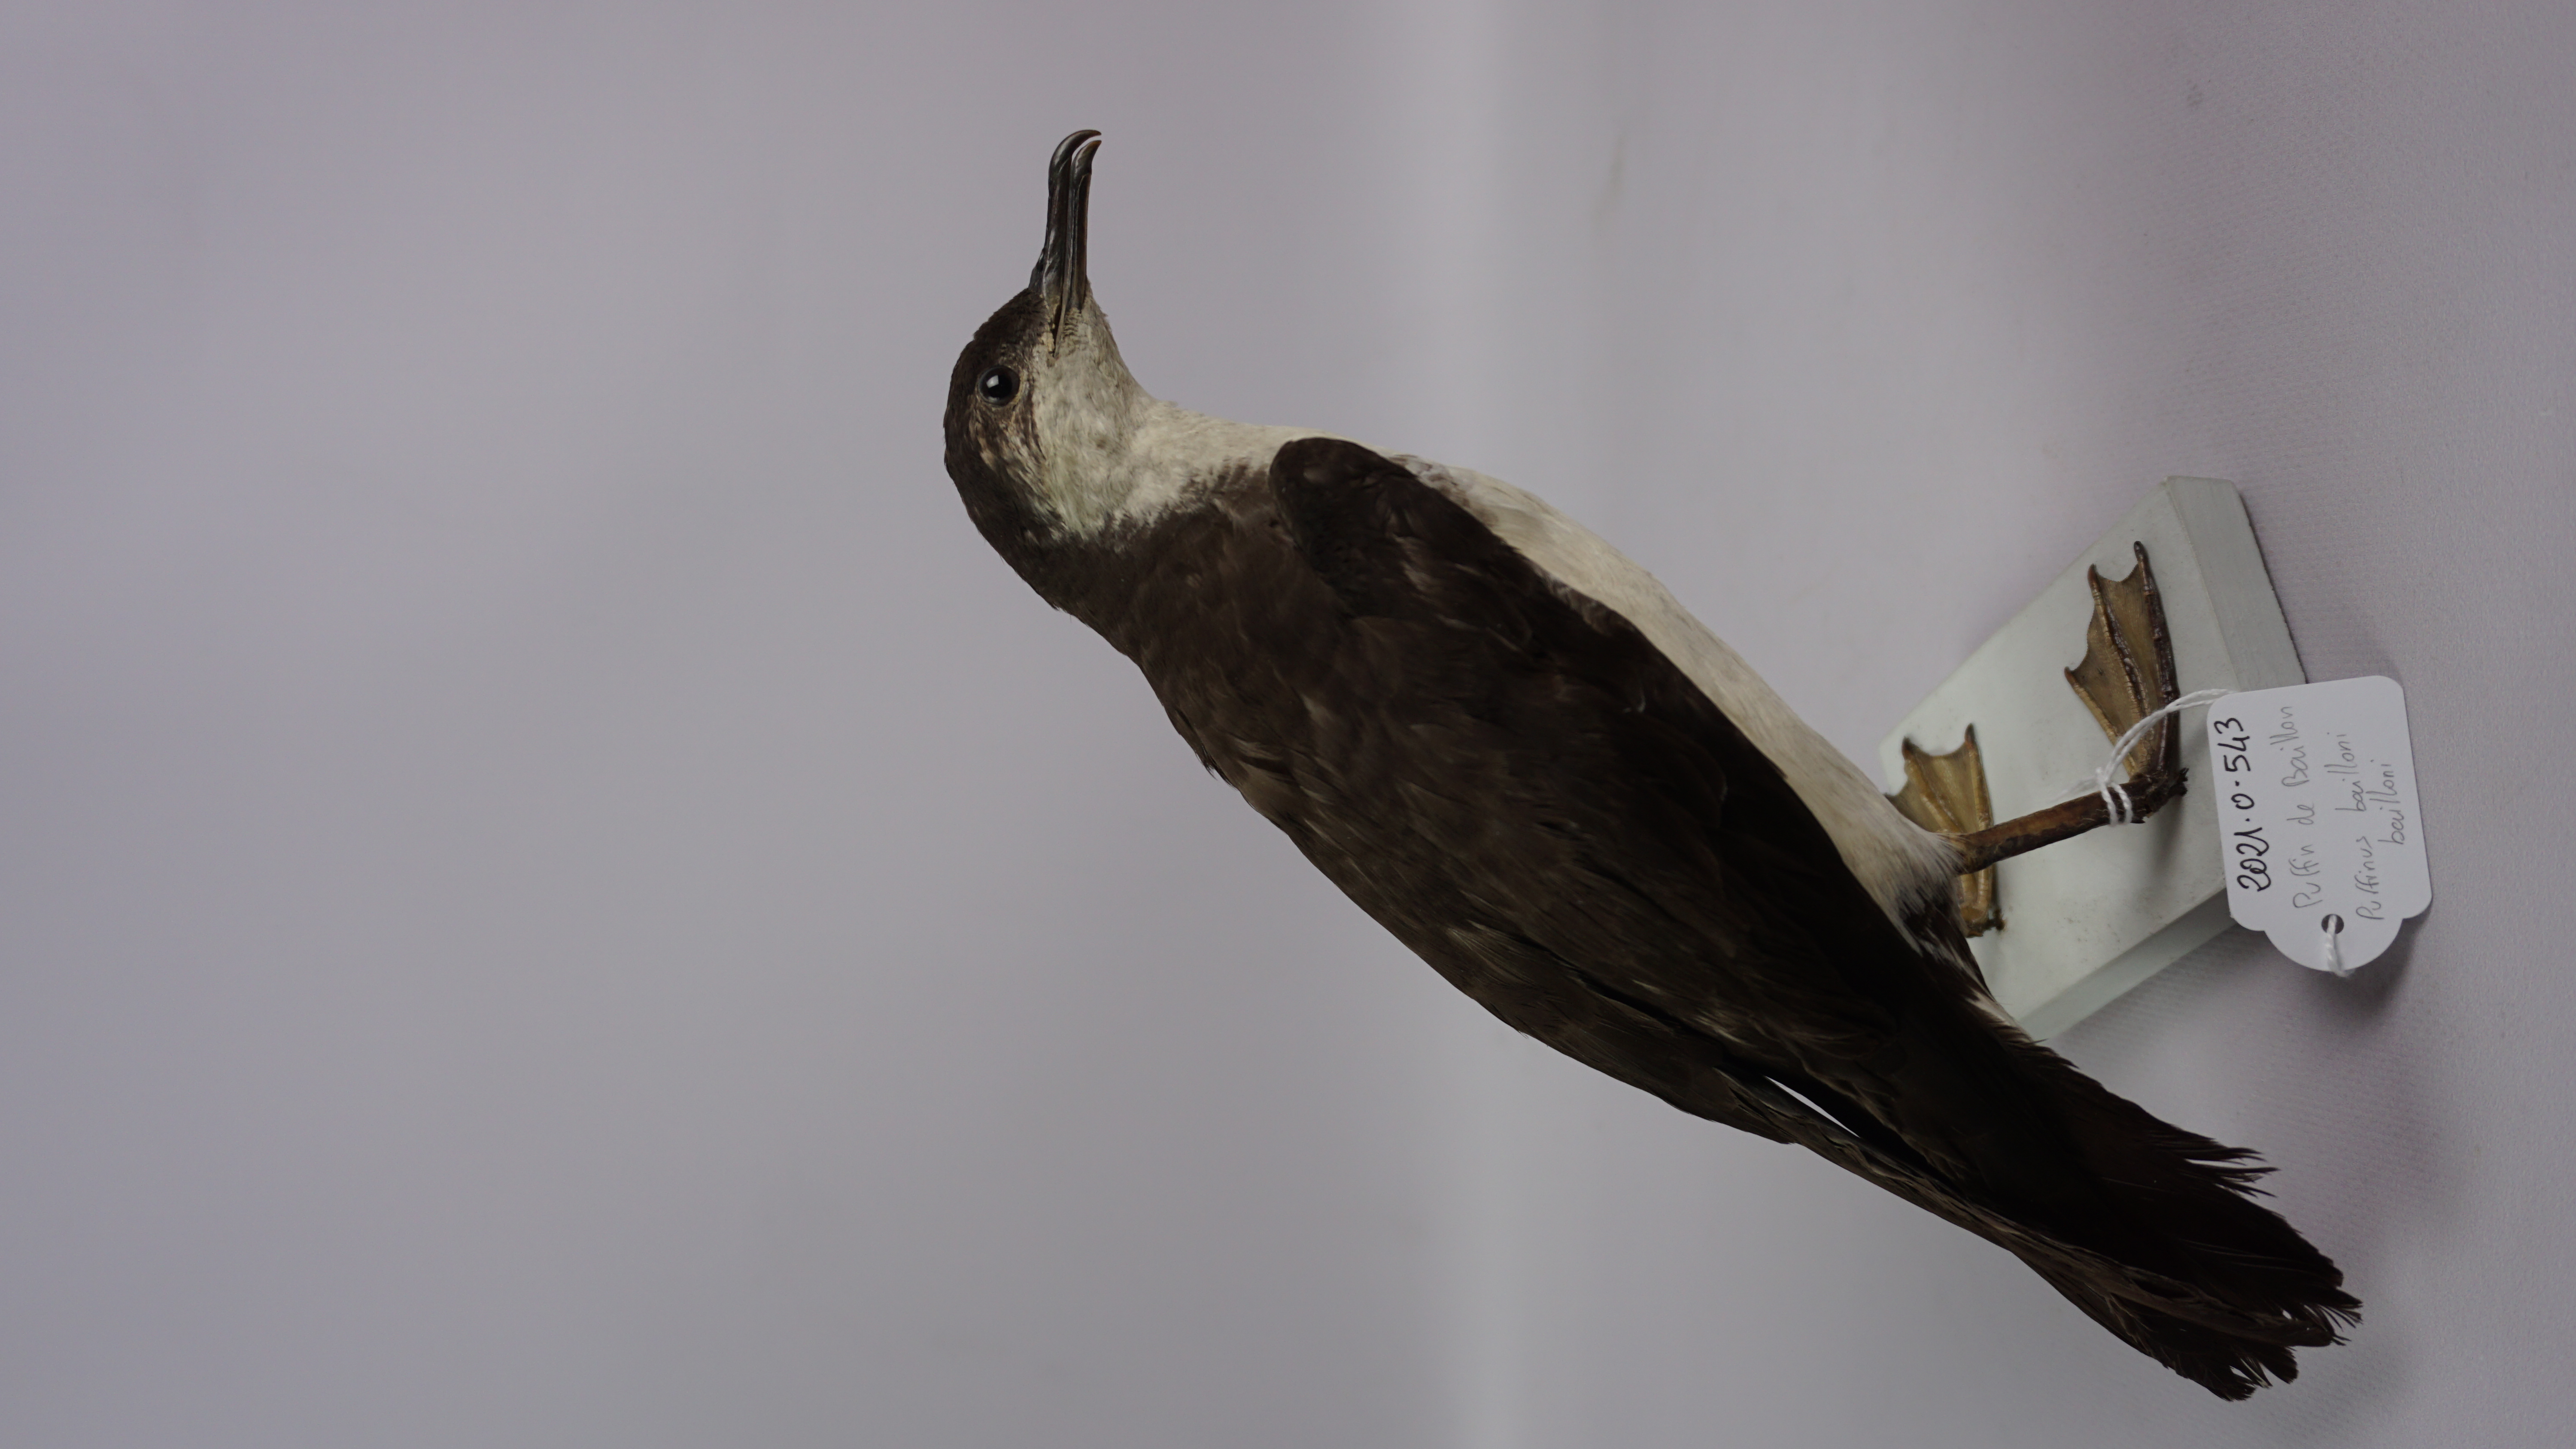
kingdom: Animalia
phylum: Chordata
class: Aves
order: Procellariiformes
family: Procellariidae
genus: Puffinus
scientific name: Puffinus bailloni
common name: Tropical shearwater
